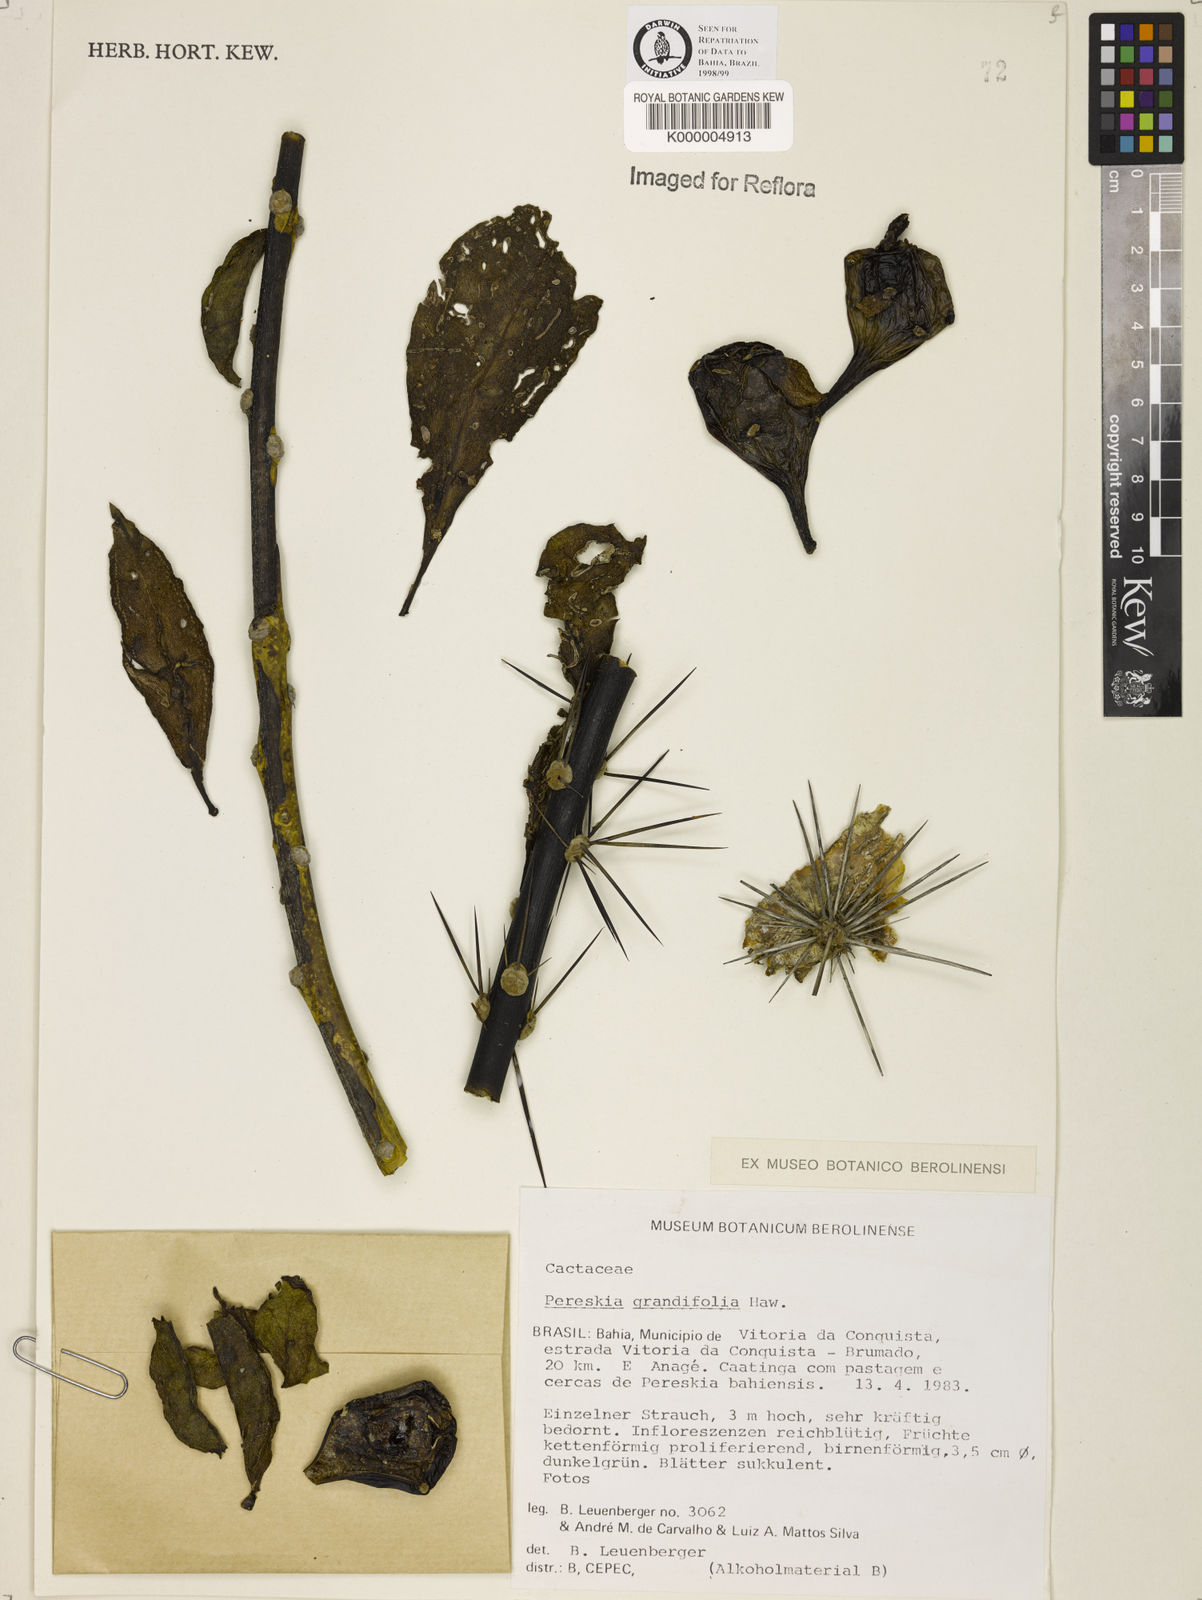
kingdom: Plantae
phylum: Tracheophyta
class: Magnoliopsida
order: Caryophyllales
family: Cactaceae
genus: Pereskia
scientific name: Pereskia grandifolia
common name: Rose cactus
